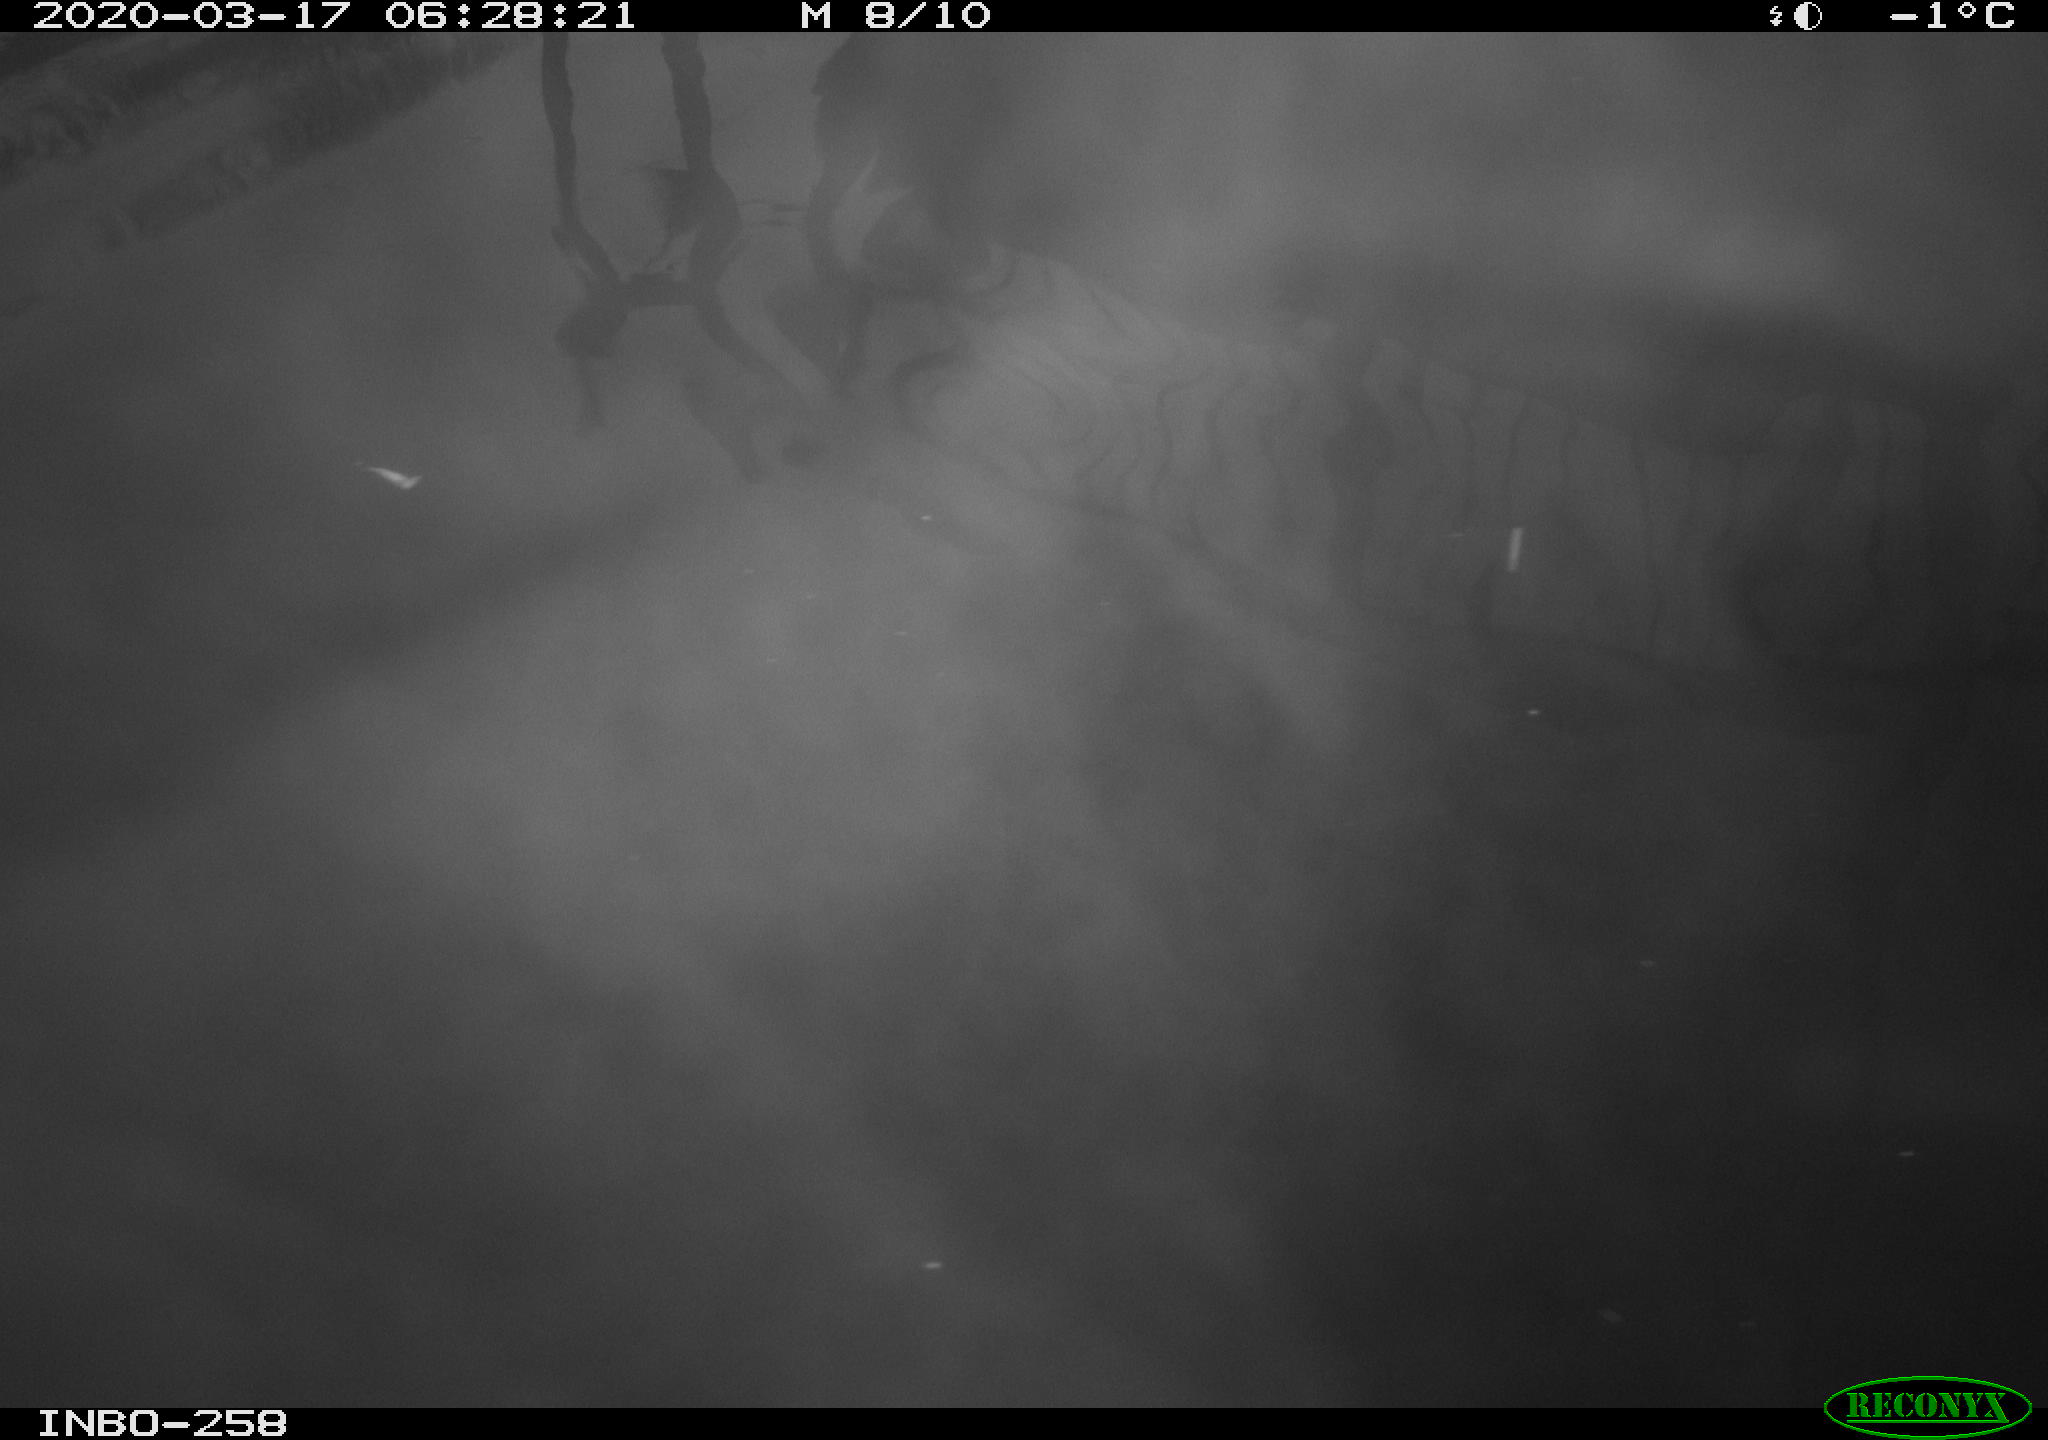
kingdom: Animalia
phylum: Chordata
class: Aves
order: Anseriformes
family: Anatidae
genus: Anas
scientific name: Anas platyrhynchos
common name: Mallard
